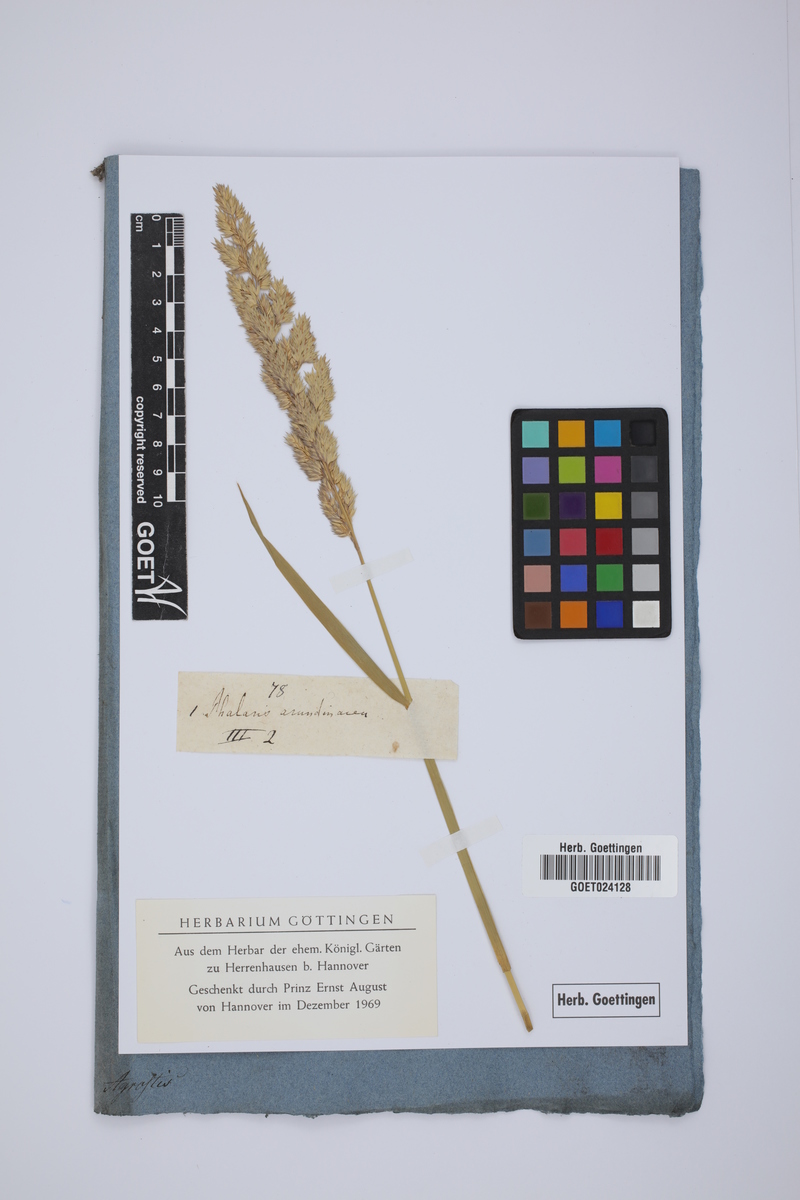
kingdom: Plantae
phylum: Tracheophyta
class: Liliopsida
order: Poales
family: Poaceae
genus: Phalaris
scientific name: Phalaris arundinacea
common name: Reed canary-grass
